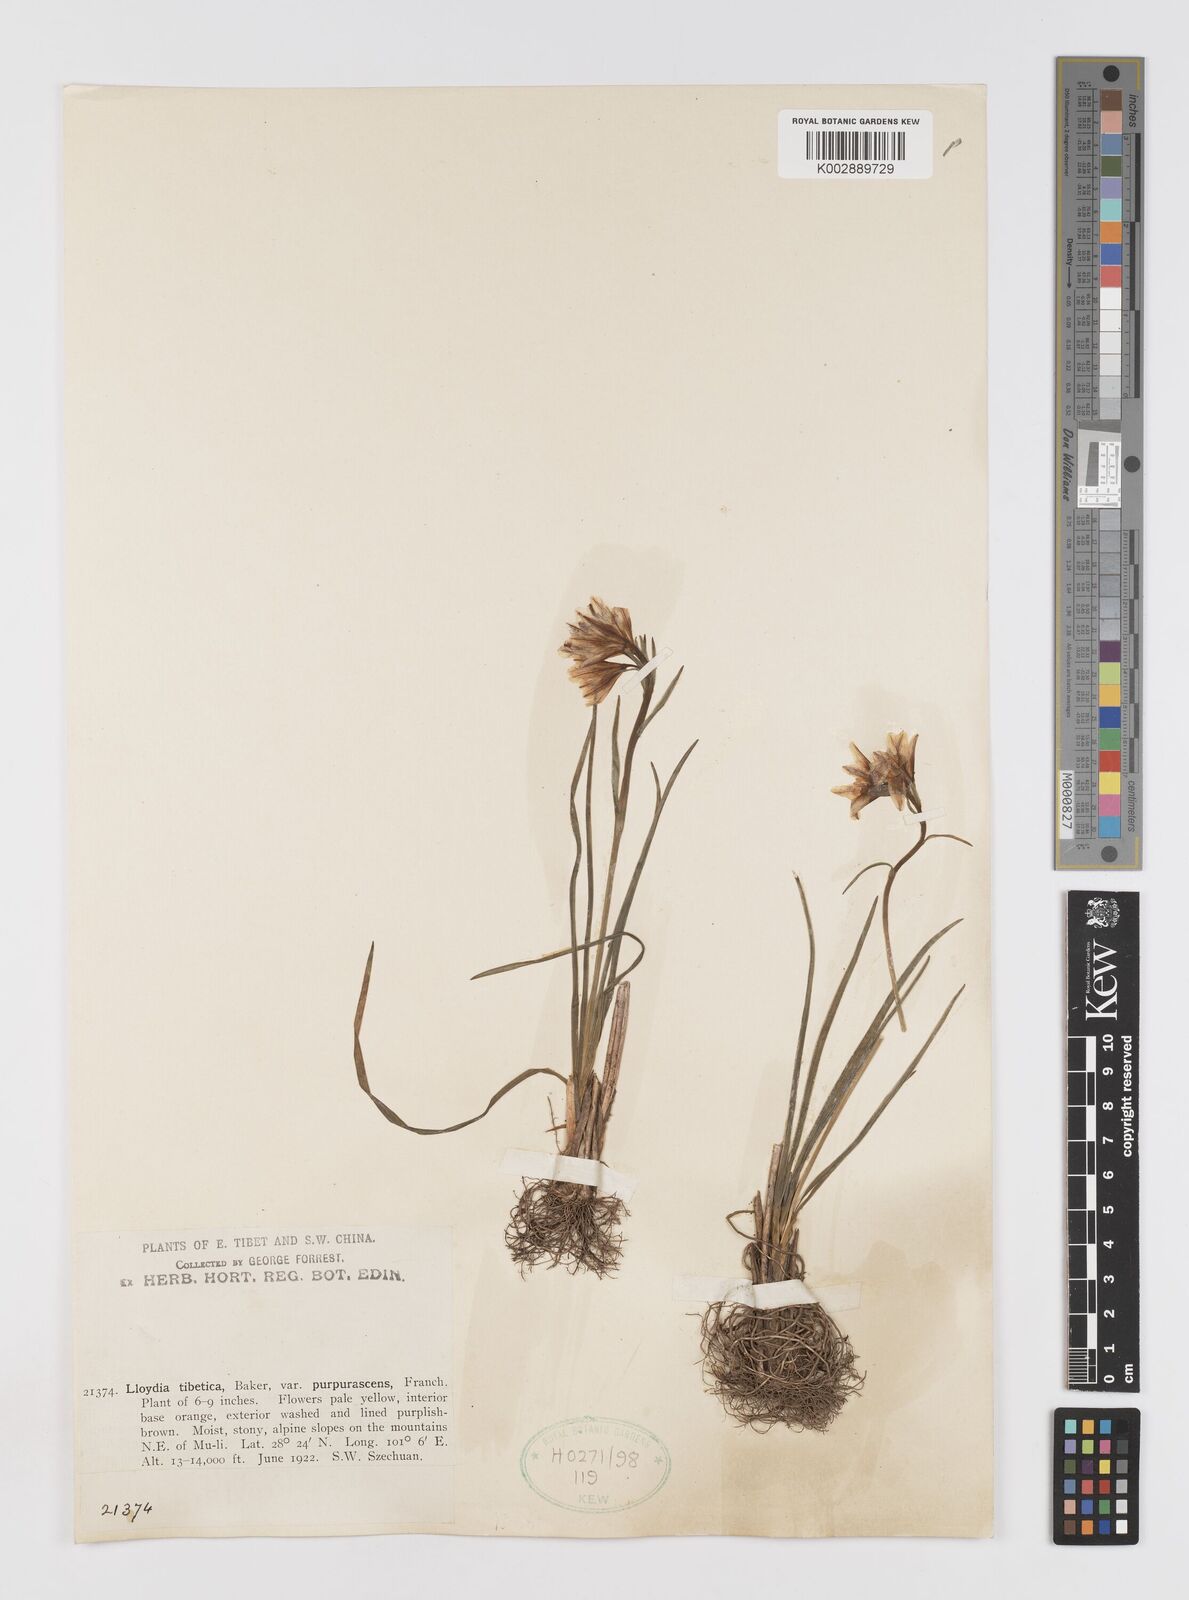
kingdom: Plantae
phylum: Tracheophyta
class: Liliopsida
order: Liliales
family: Liliaceae
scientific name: Liliaceae
